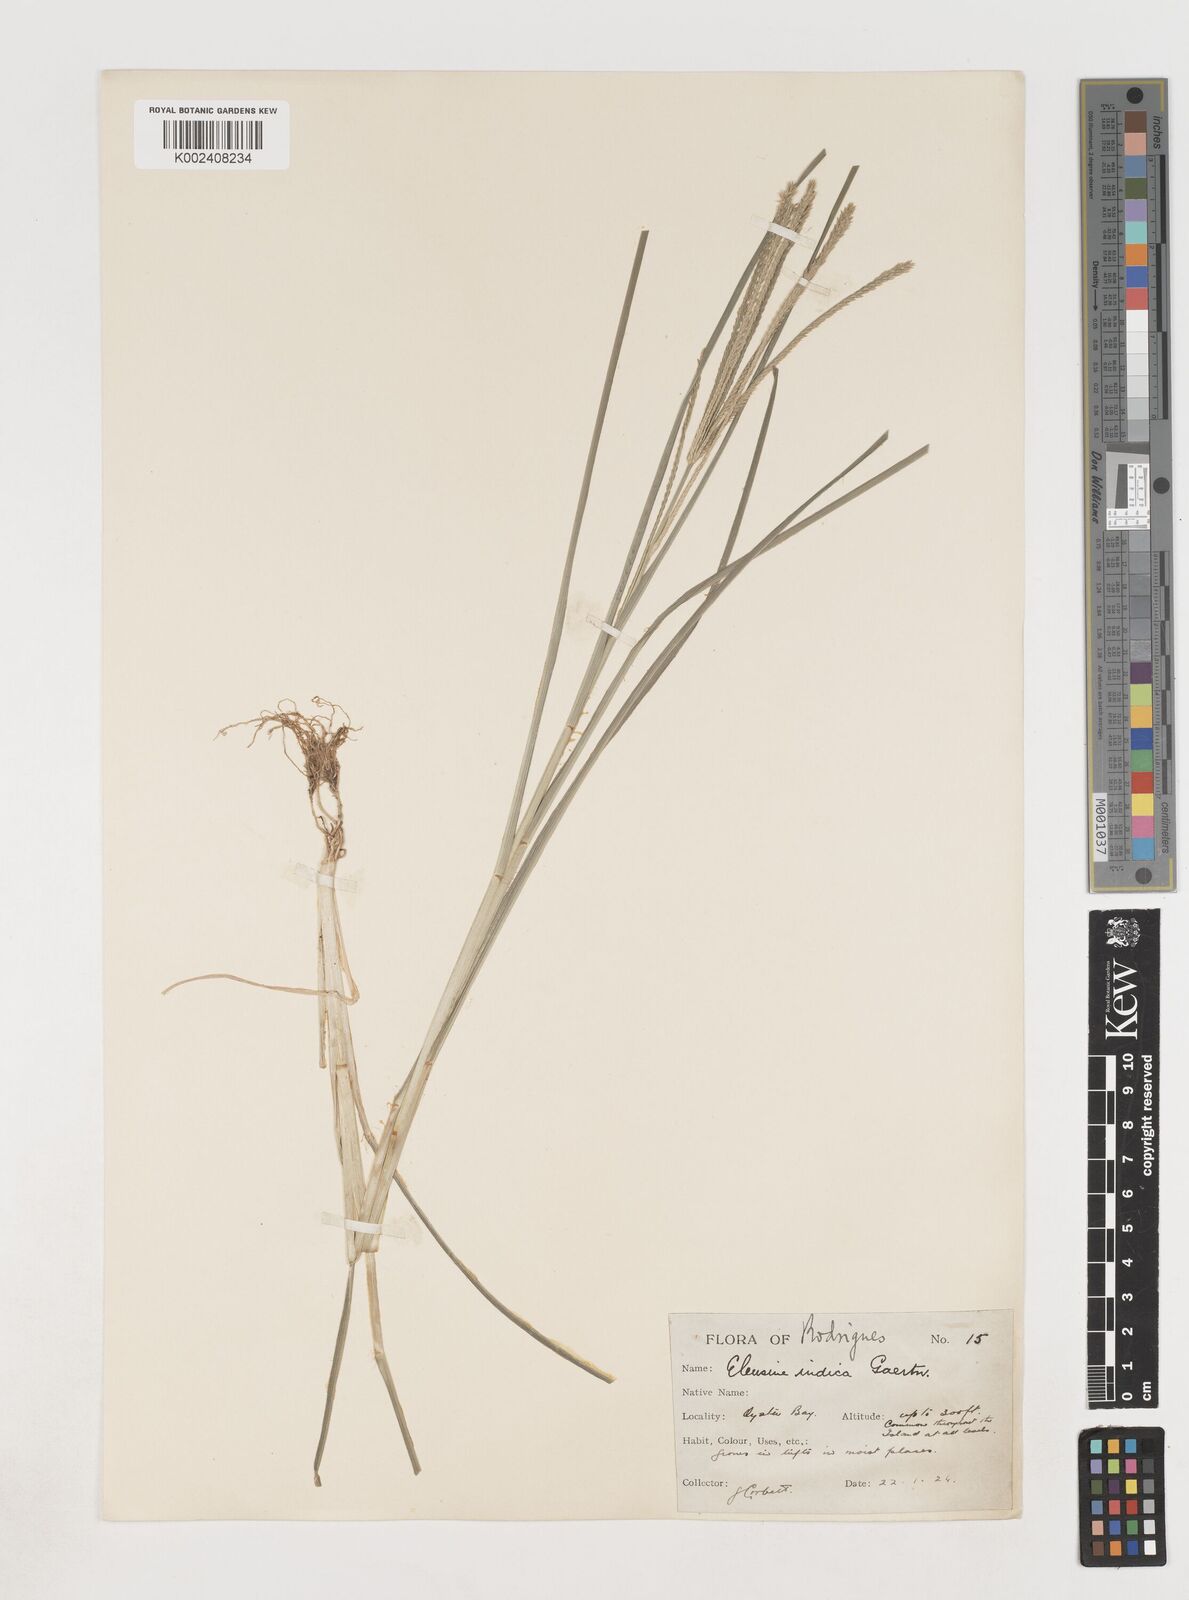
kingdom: Plantae
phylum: Tracheophyta
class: Liliopsida
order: Poales
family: Poaceae
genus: Eleusine
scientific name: Eleusine africana
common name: Wild african finger millet
